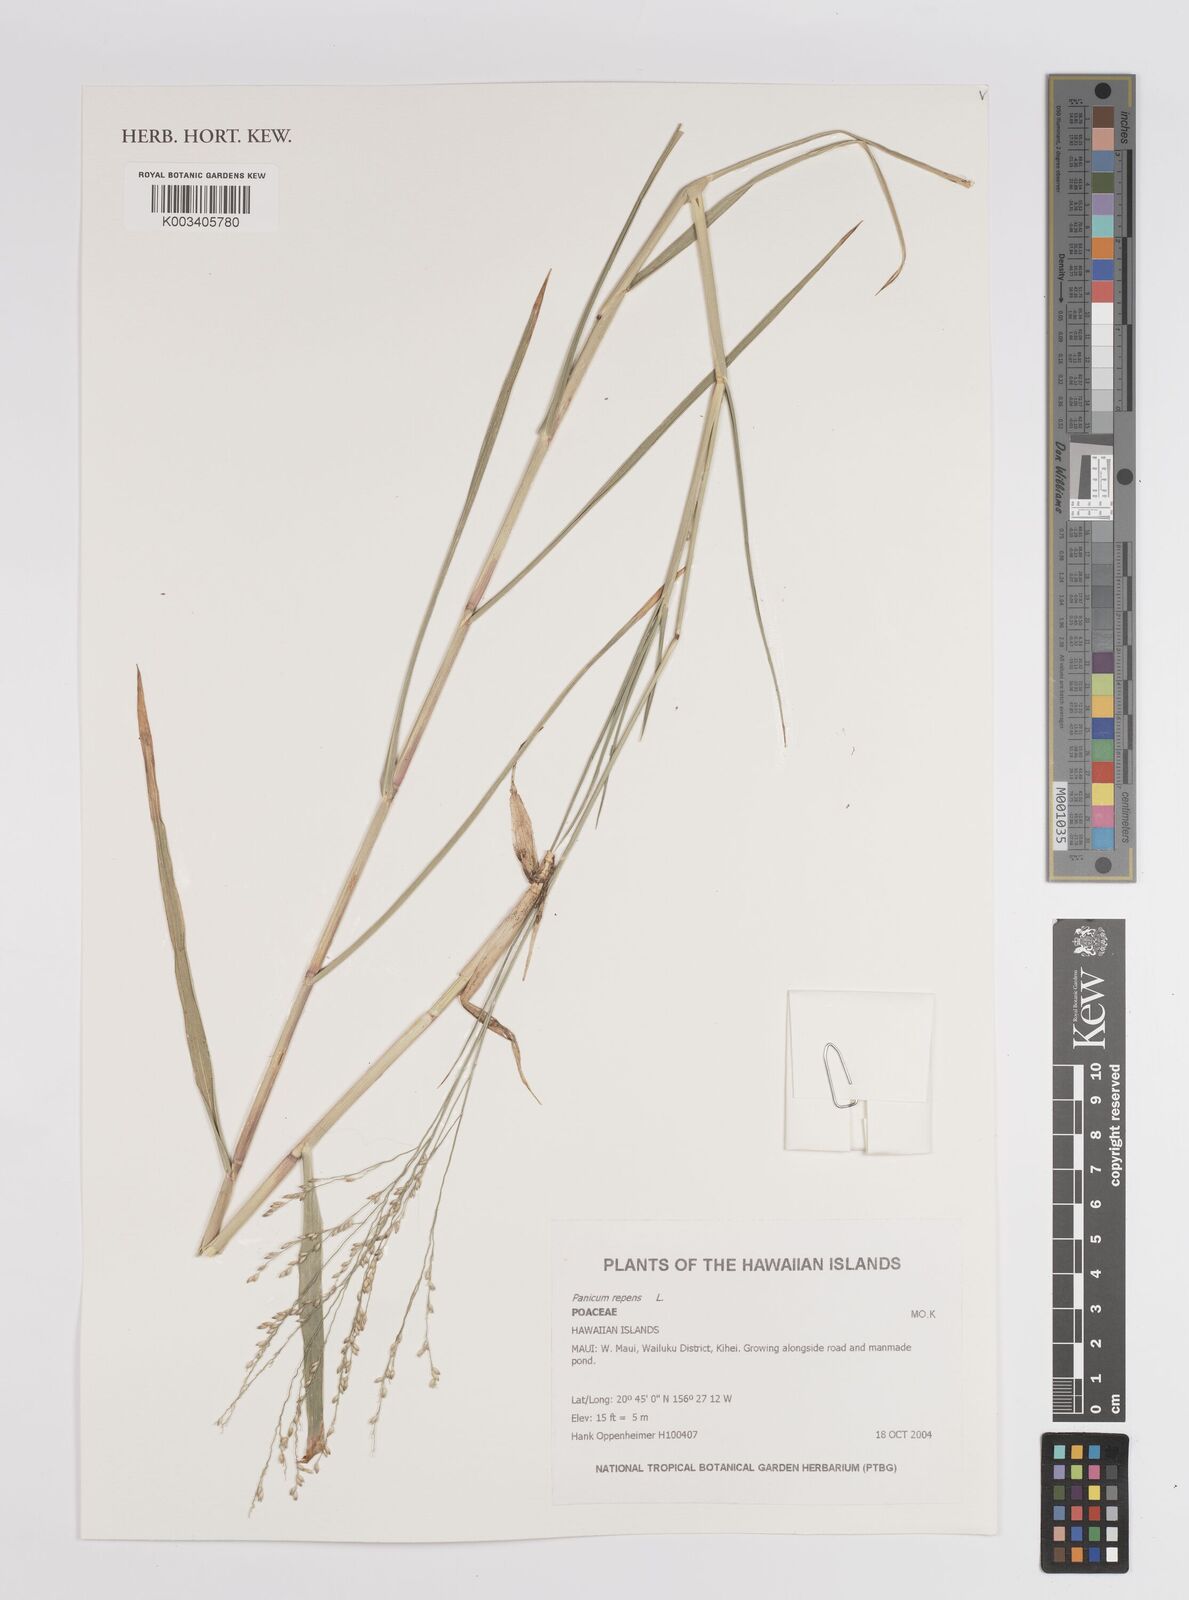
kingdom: Plantae
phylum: Tracheophyta
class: Liliopsida
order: Poales
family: Poaceae
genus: Panicum
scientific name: Panicum repens
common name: Torpedo grass
